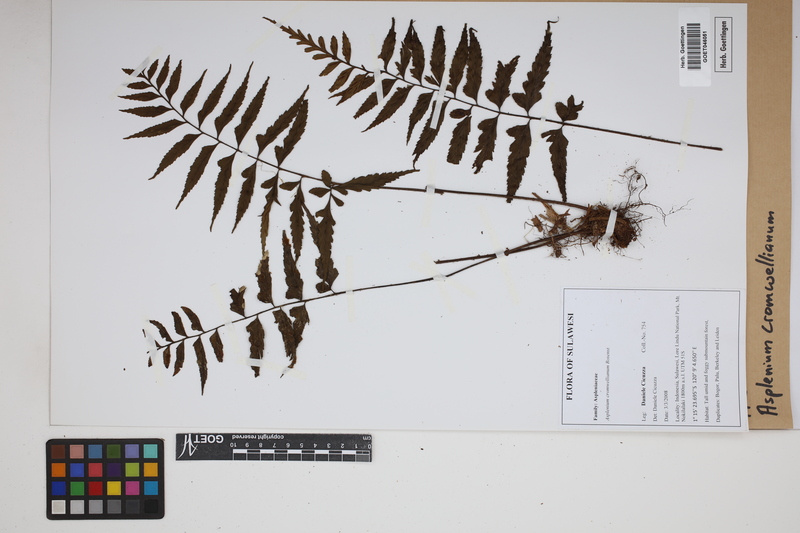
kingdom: Plantae
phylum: Tracheophyta
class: Polypodiopsida
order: Polypodiales
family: Aspleniaceae
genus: Asplenium
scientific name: Asplenium lobulatum
